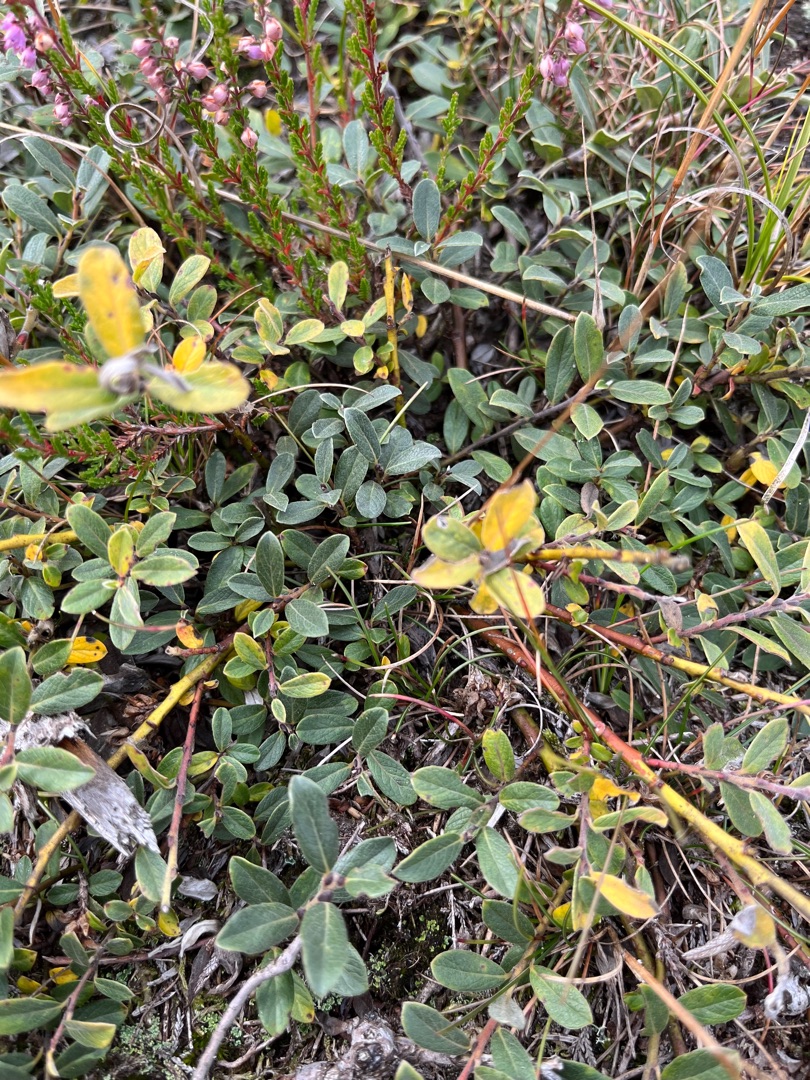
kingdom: Plantae
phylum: Tracheophyta
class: Magnoliopsida
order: Malpighiales
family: Salicaceae
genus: Salix
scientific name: Salix repens
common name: Krybende pil
